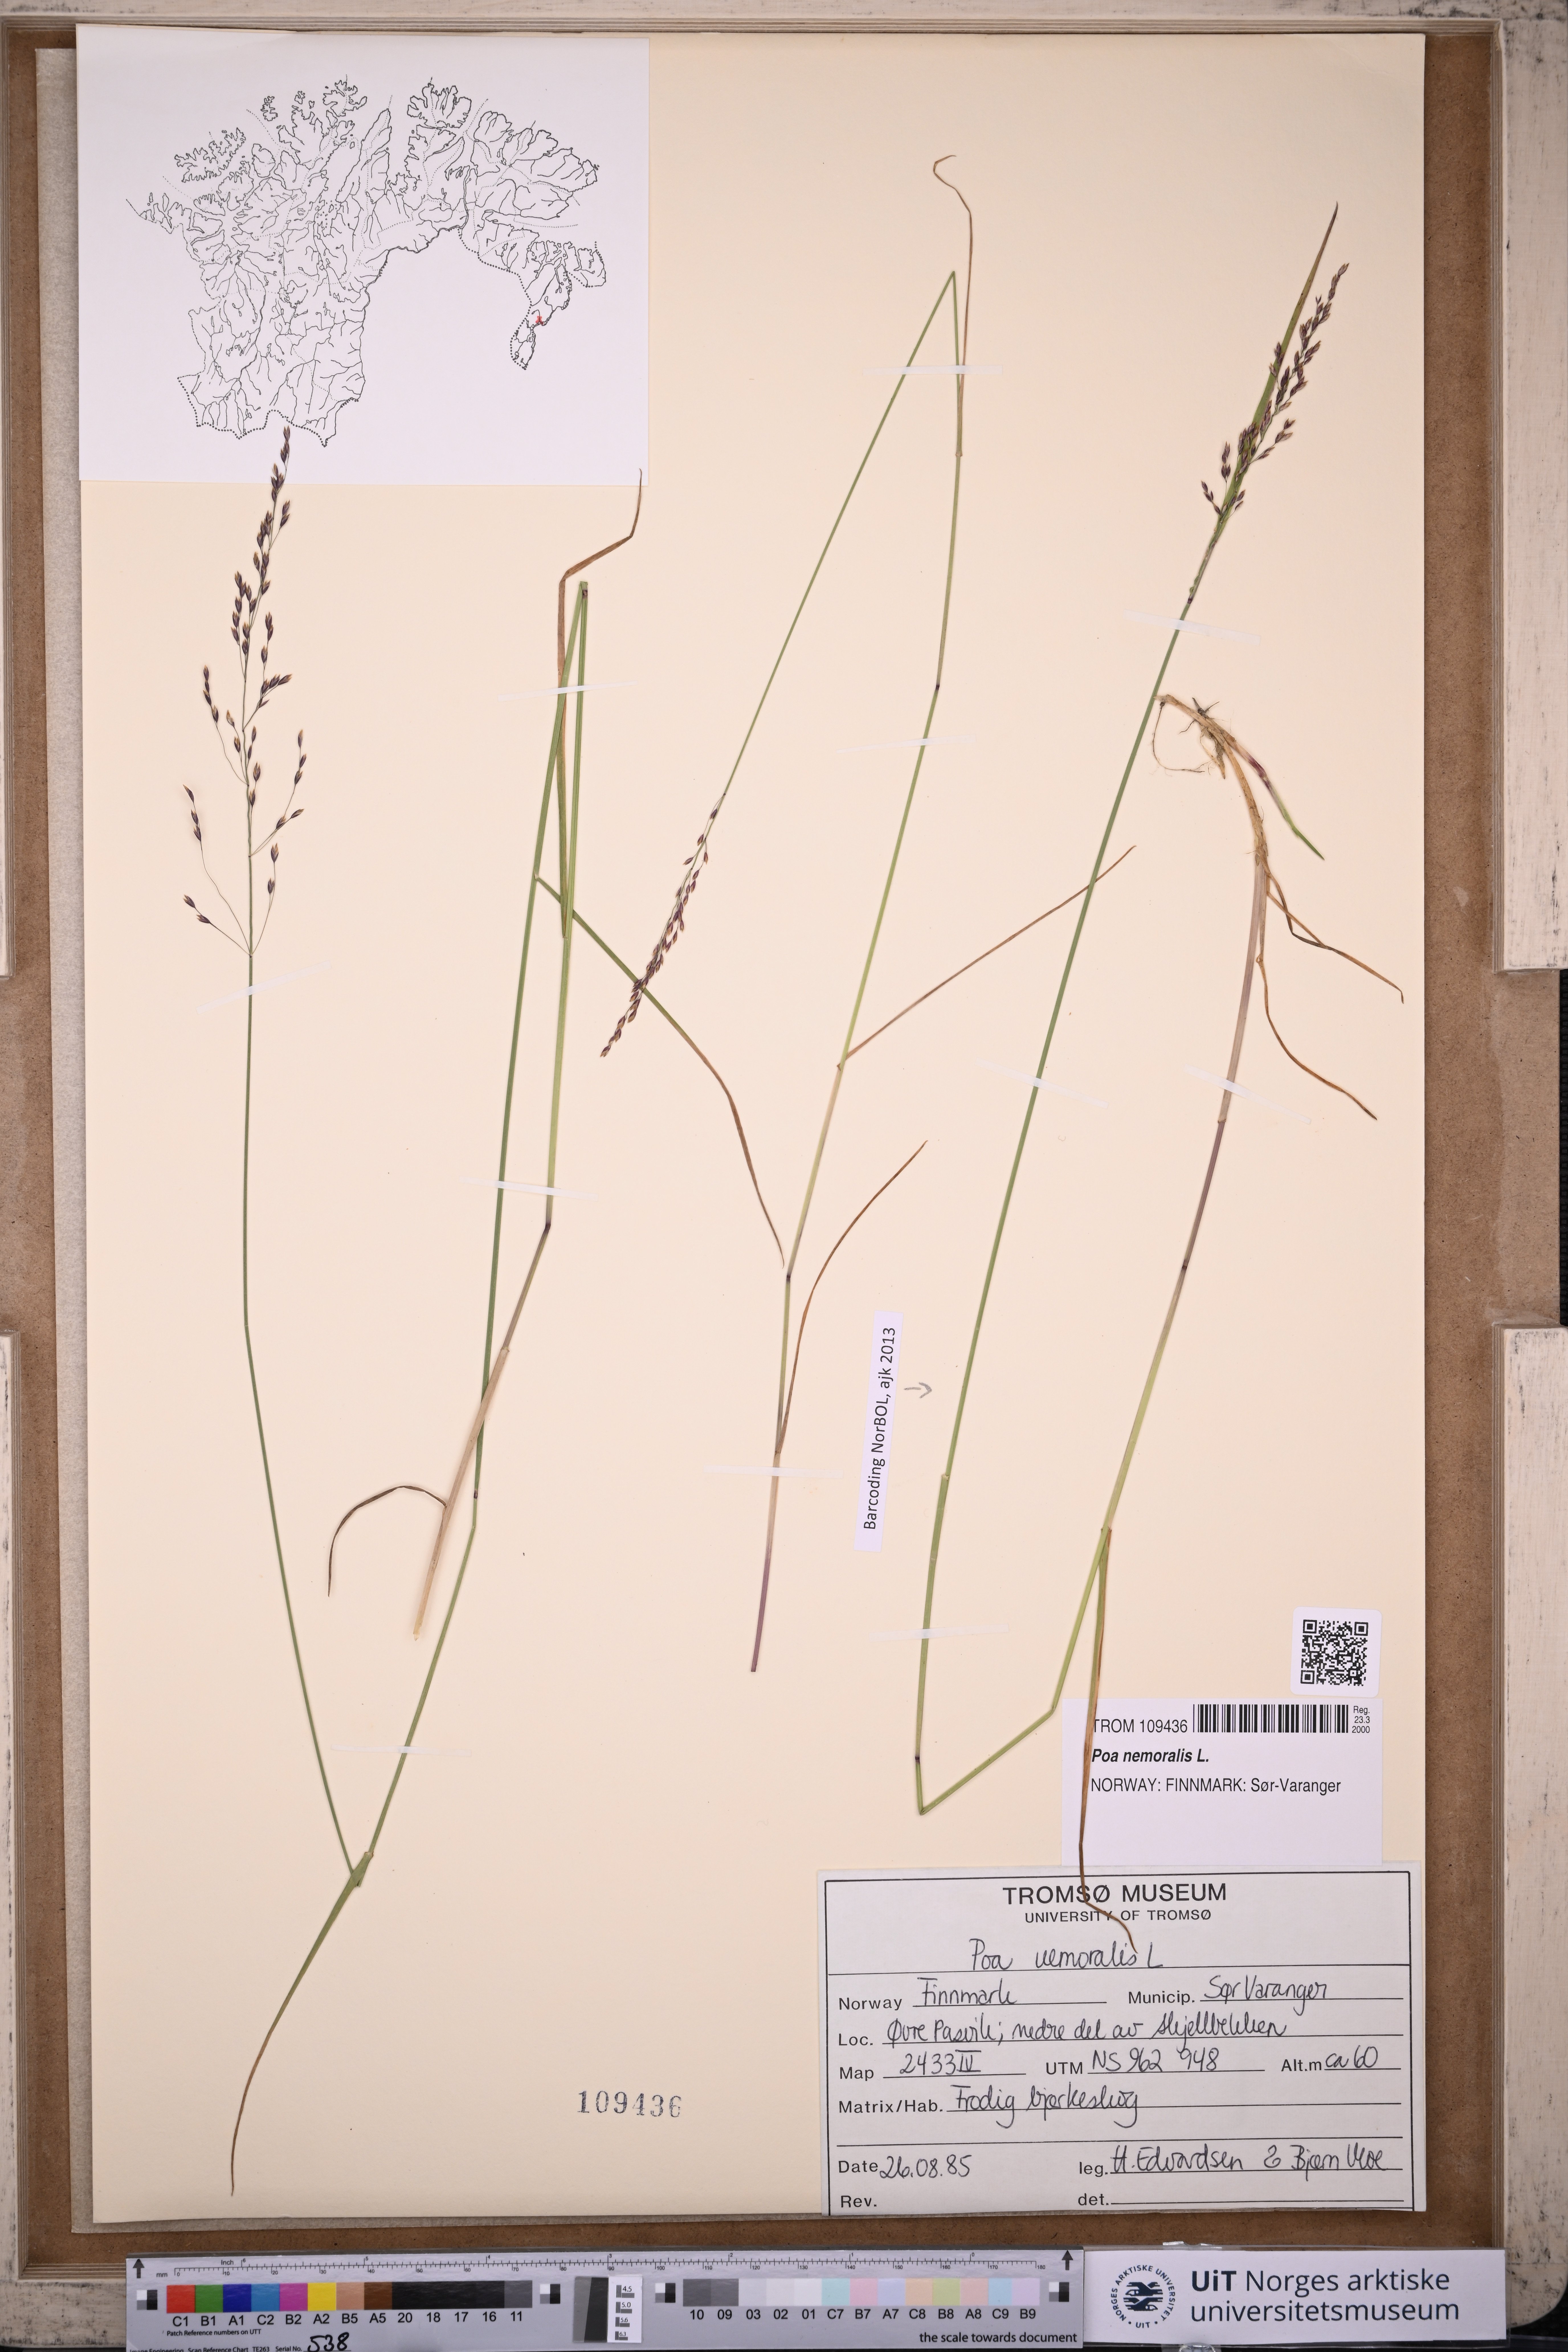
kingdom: Plantae
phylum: Tracheophyta
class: Liliopsida
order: Poales
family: Poaceae
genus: Poa
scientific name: Poa nemoralis
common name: Wood bluegrass
